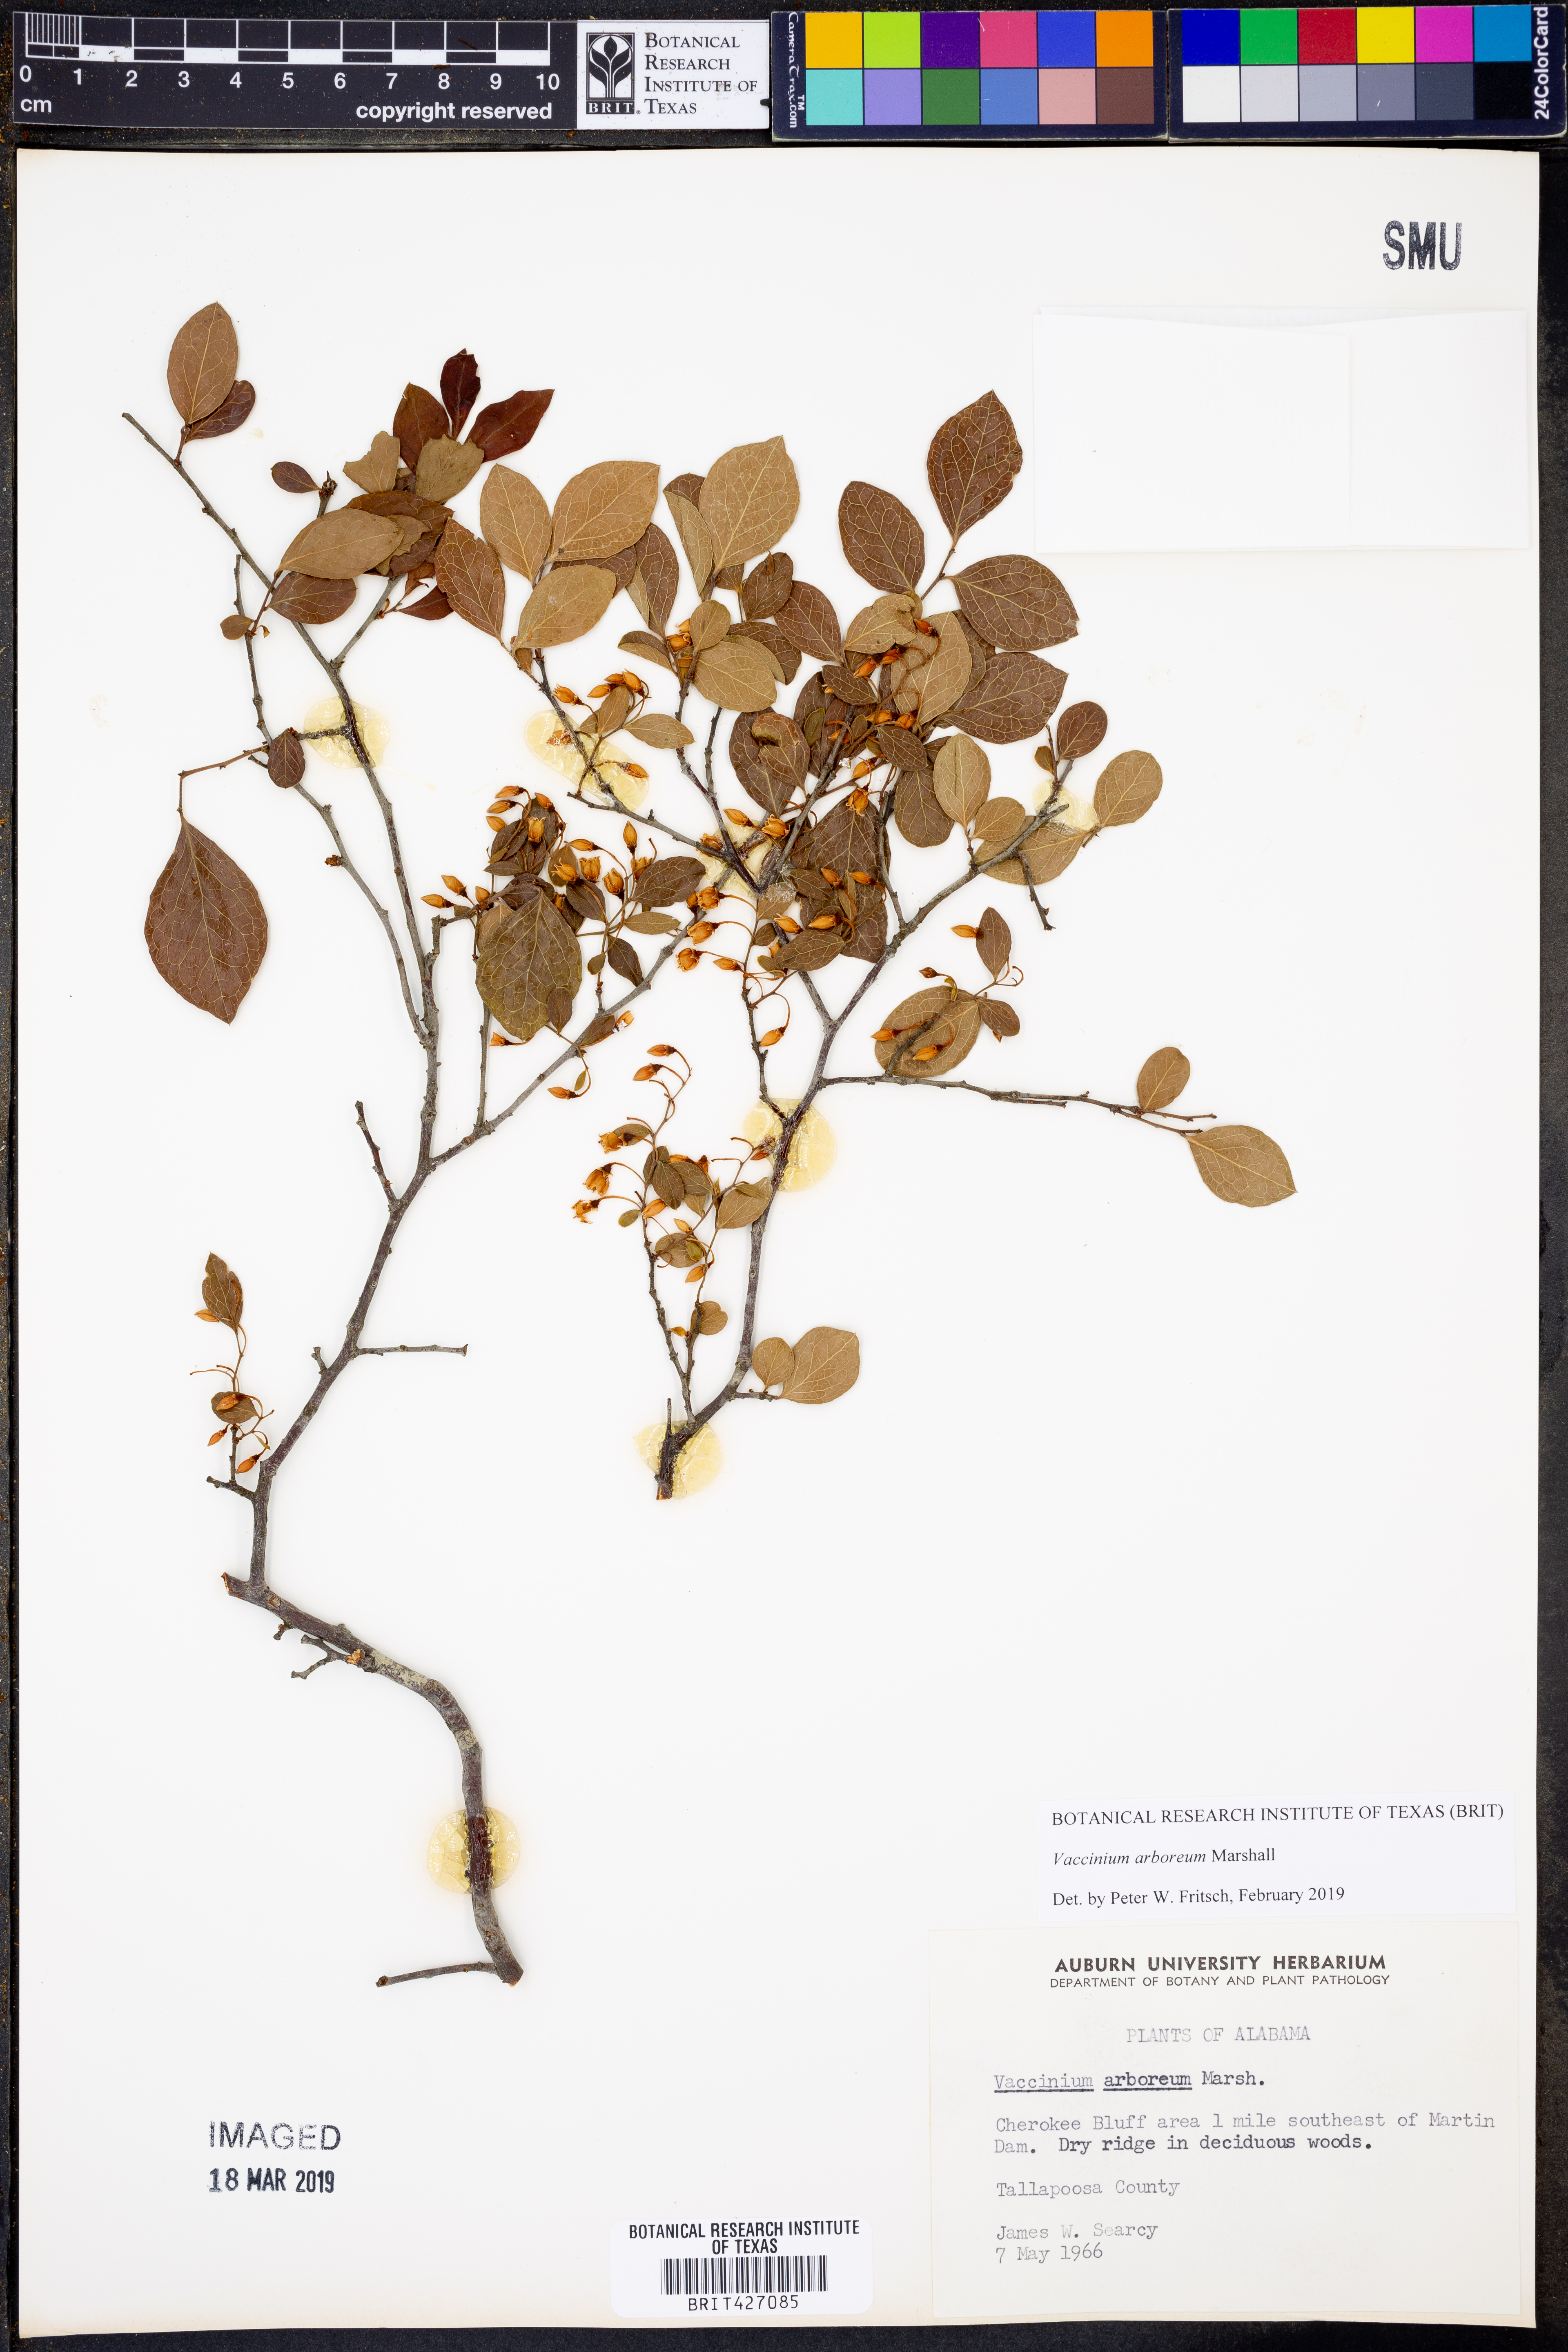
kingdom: Plantae
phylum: Tracheophyta
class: Magnoliopsida
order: Ericales
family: Ericaceae
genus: Vaccinium
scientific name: Vaccinium arboreum
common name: Farkleberry
